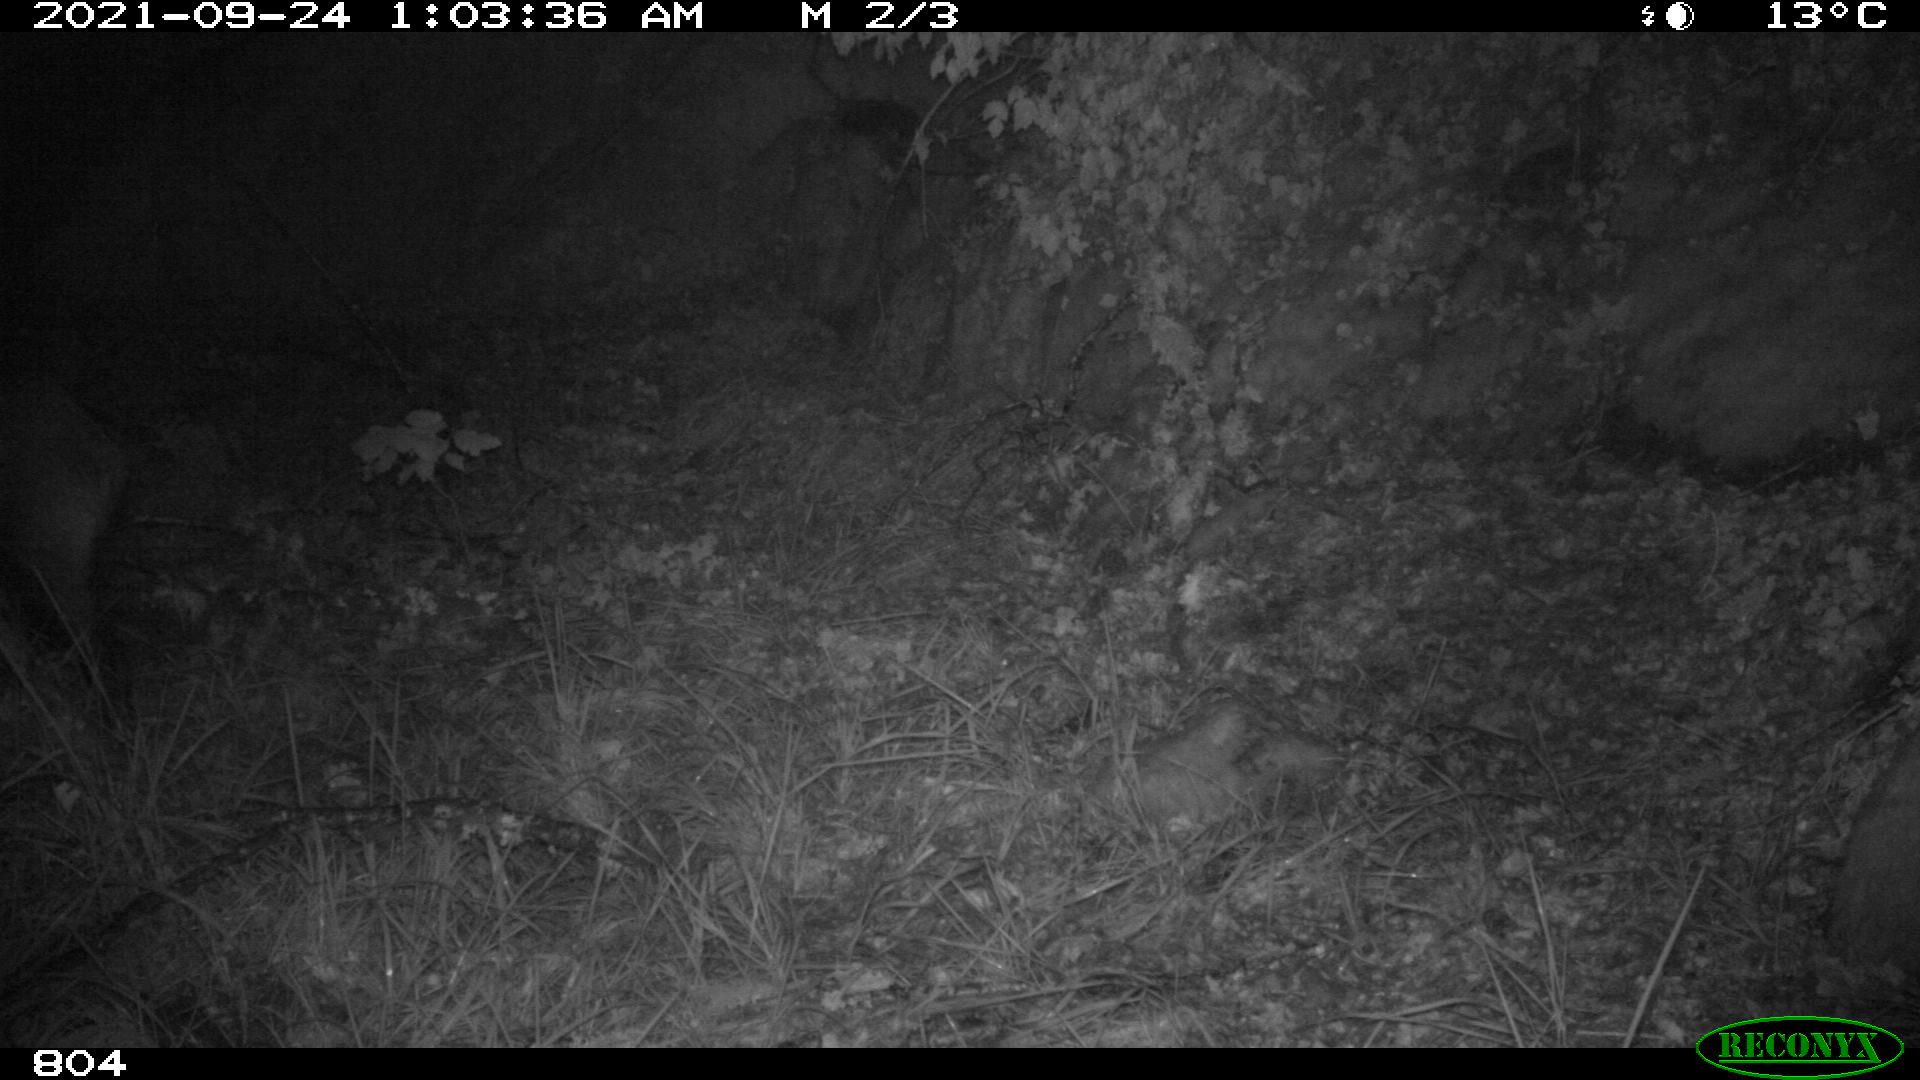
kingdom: Animalia
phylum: Chordata
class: Mammalia
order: Artiodactyla
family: Suidae
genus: Sus
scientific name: Sus scrofa
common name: Wild boar
